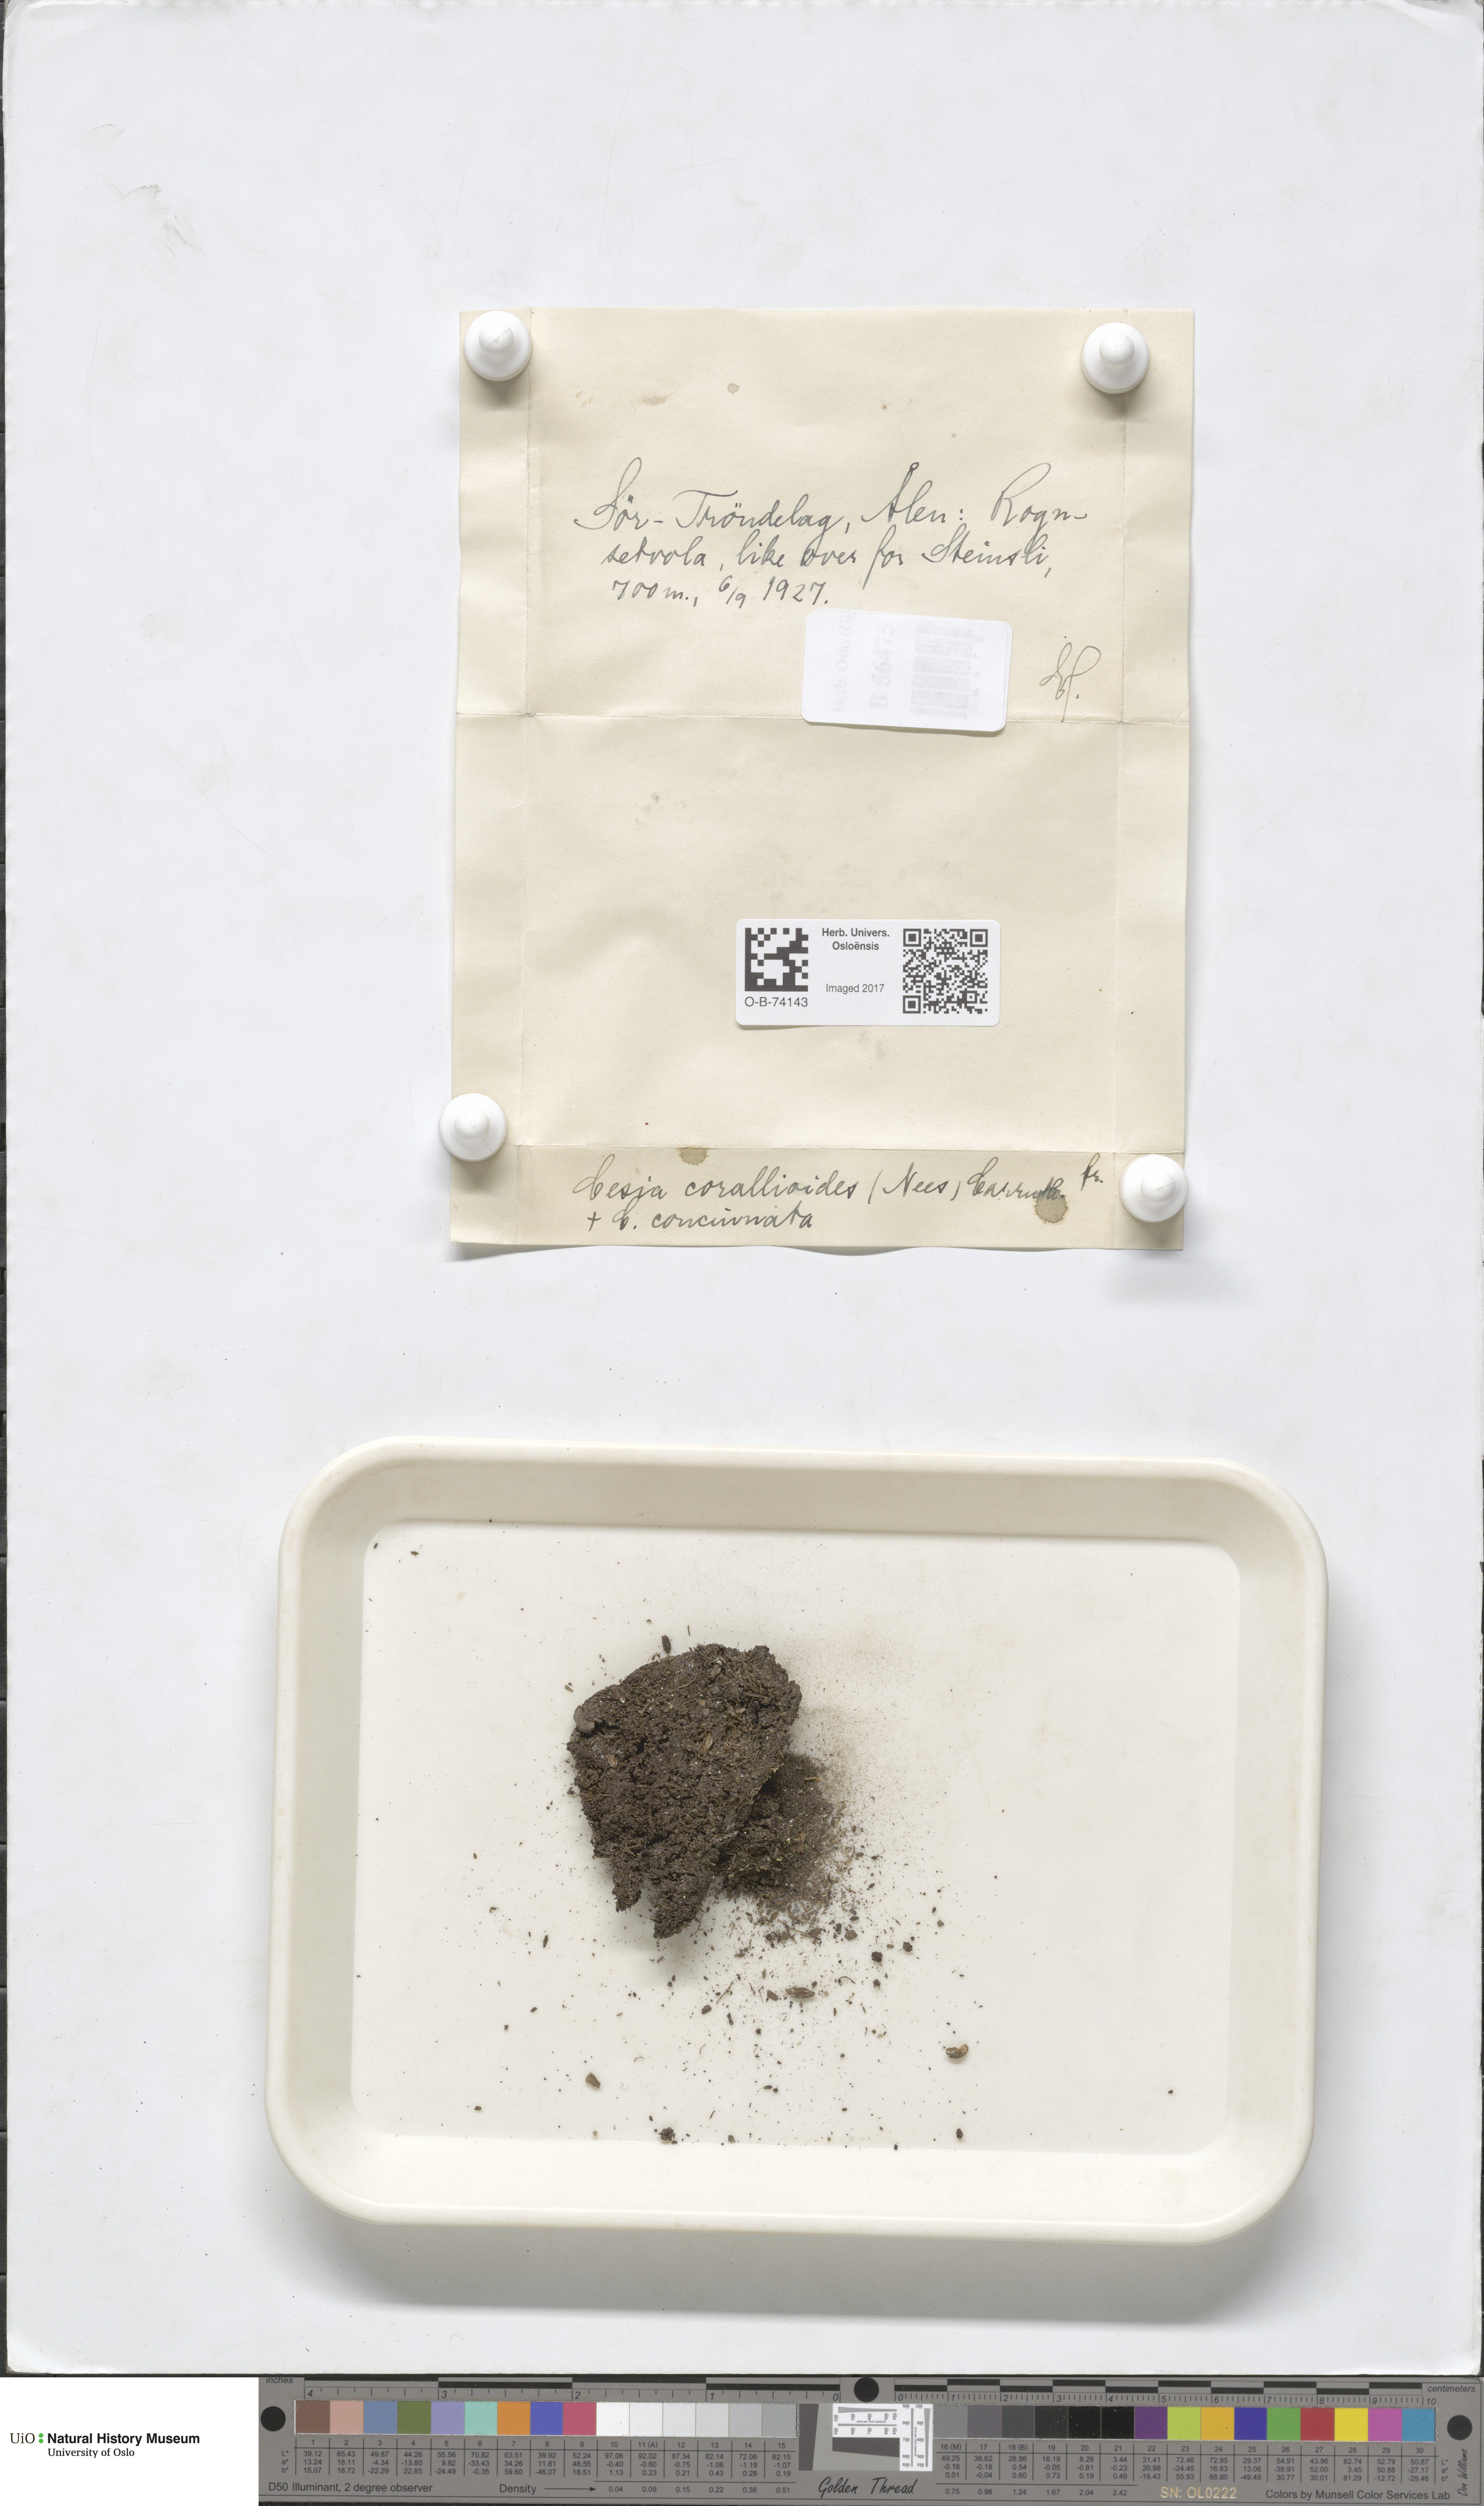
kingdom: Plantae
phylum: Marchantiophyta
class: Jungermanniopsida
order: Jungermanniales
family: Gymnomitriaceae
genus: Gymnomitrion
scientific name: Gymnomitrion corallioides
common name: Coral frostwort
